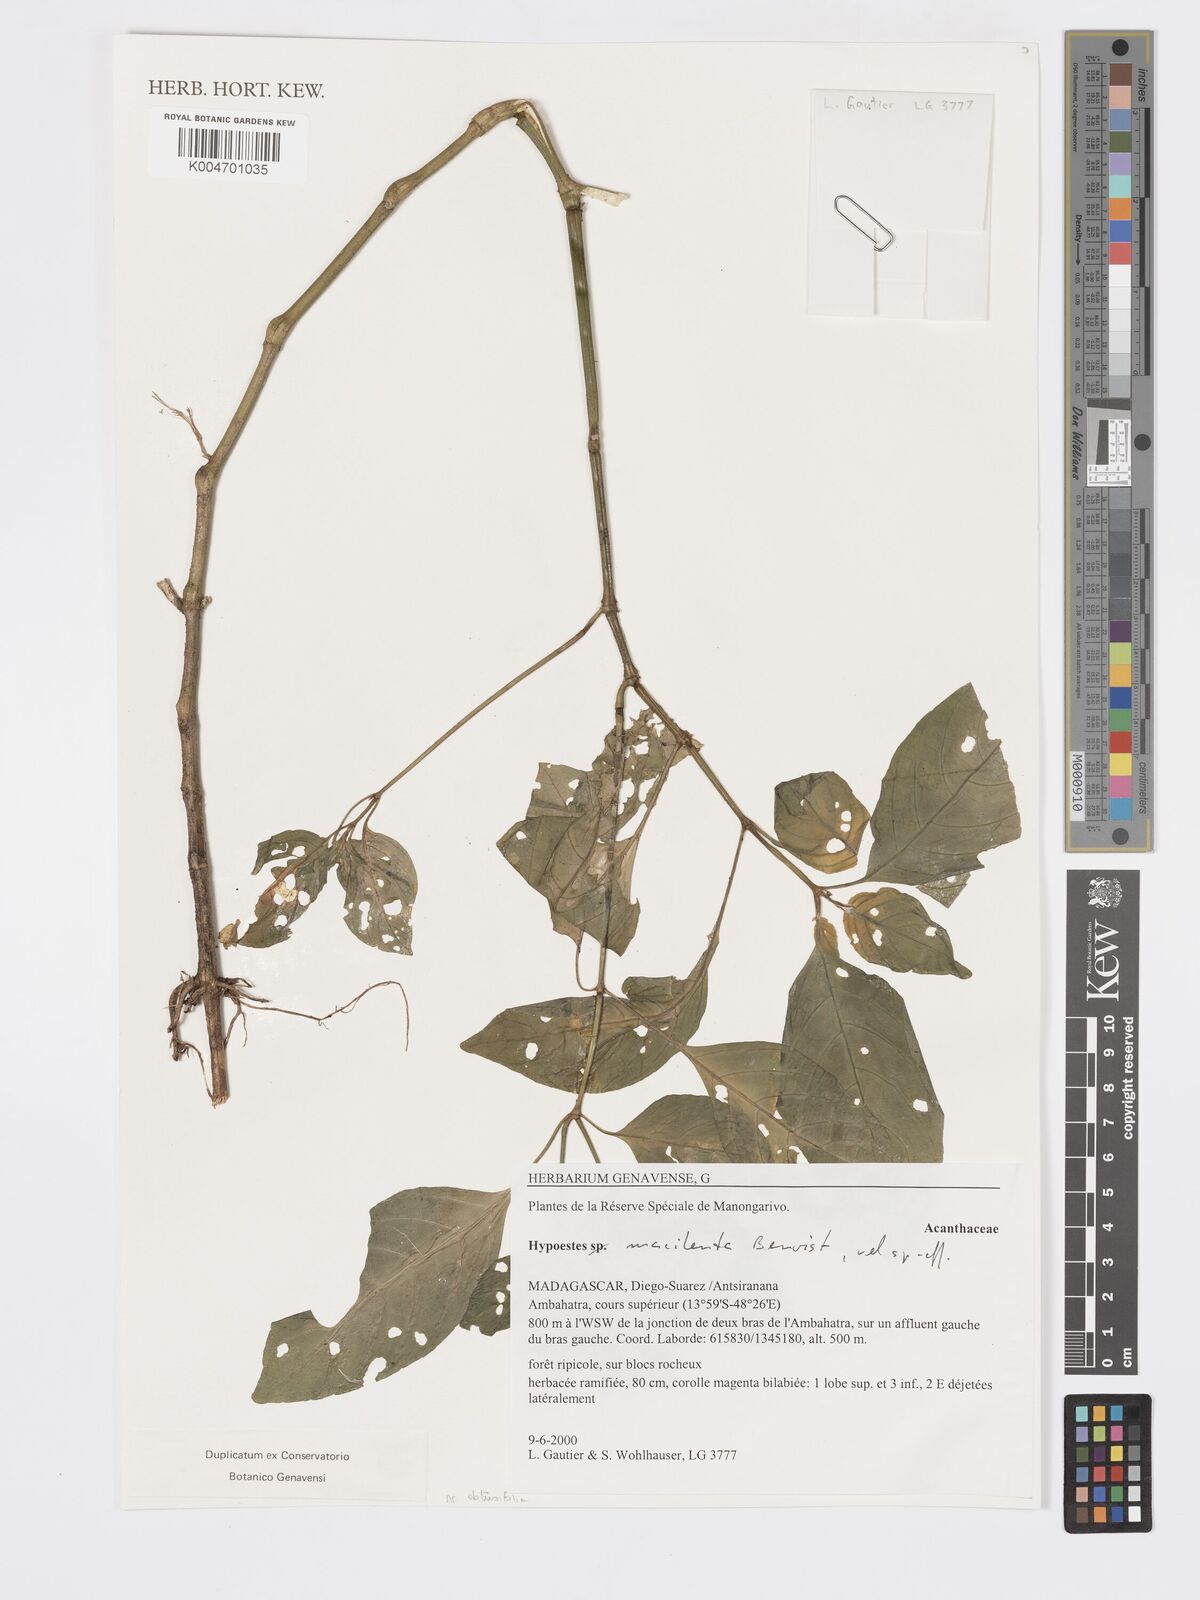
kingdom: Plantae
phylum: Tracheophyta
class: Magnoliopsida
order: Lamiales
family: Acanthaceae
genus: Hypoestes
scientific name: Hypoestes
